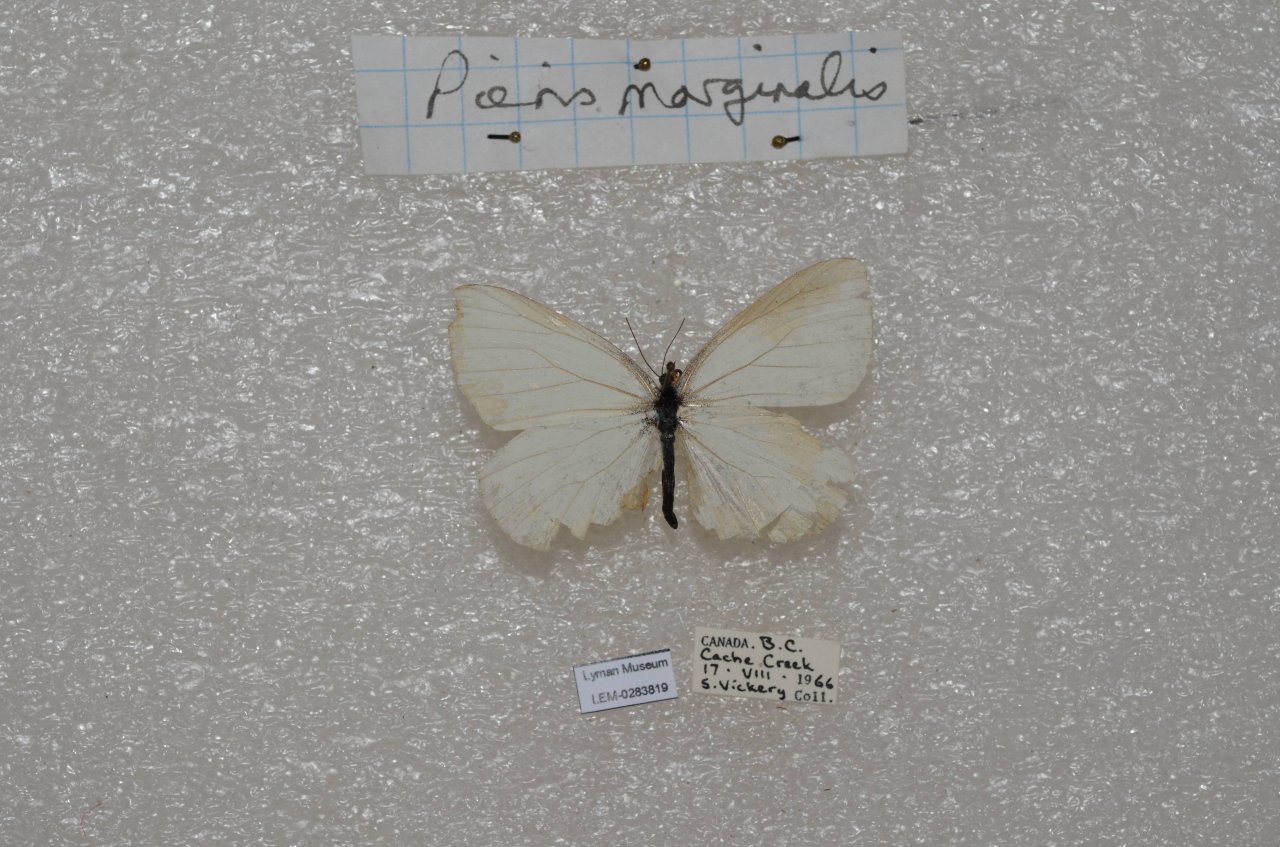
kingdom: Animalia
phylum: Arthropoda
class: Insecta
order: Lepidoptera
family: Pieridae
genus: Pieris
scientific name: Pieris marginalis
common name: Margined White
